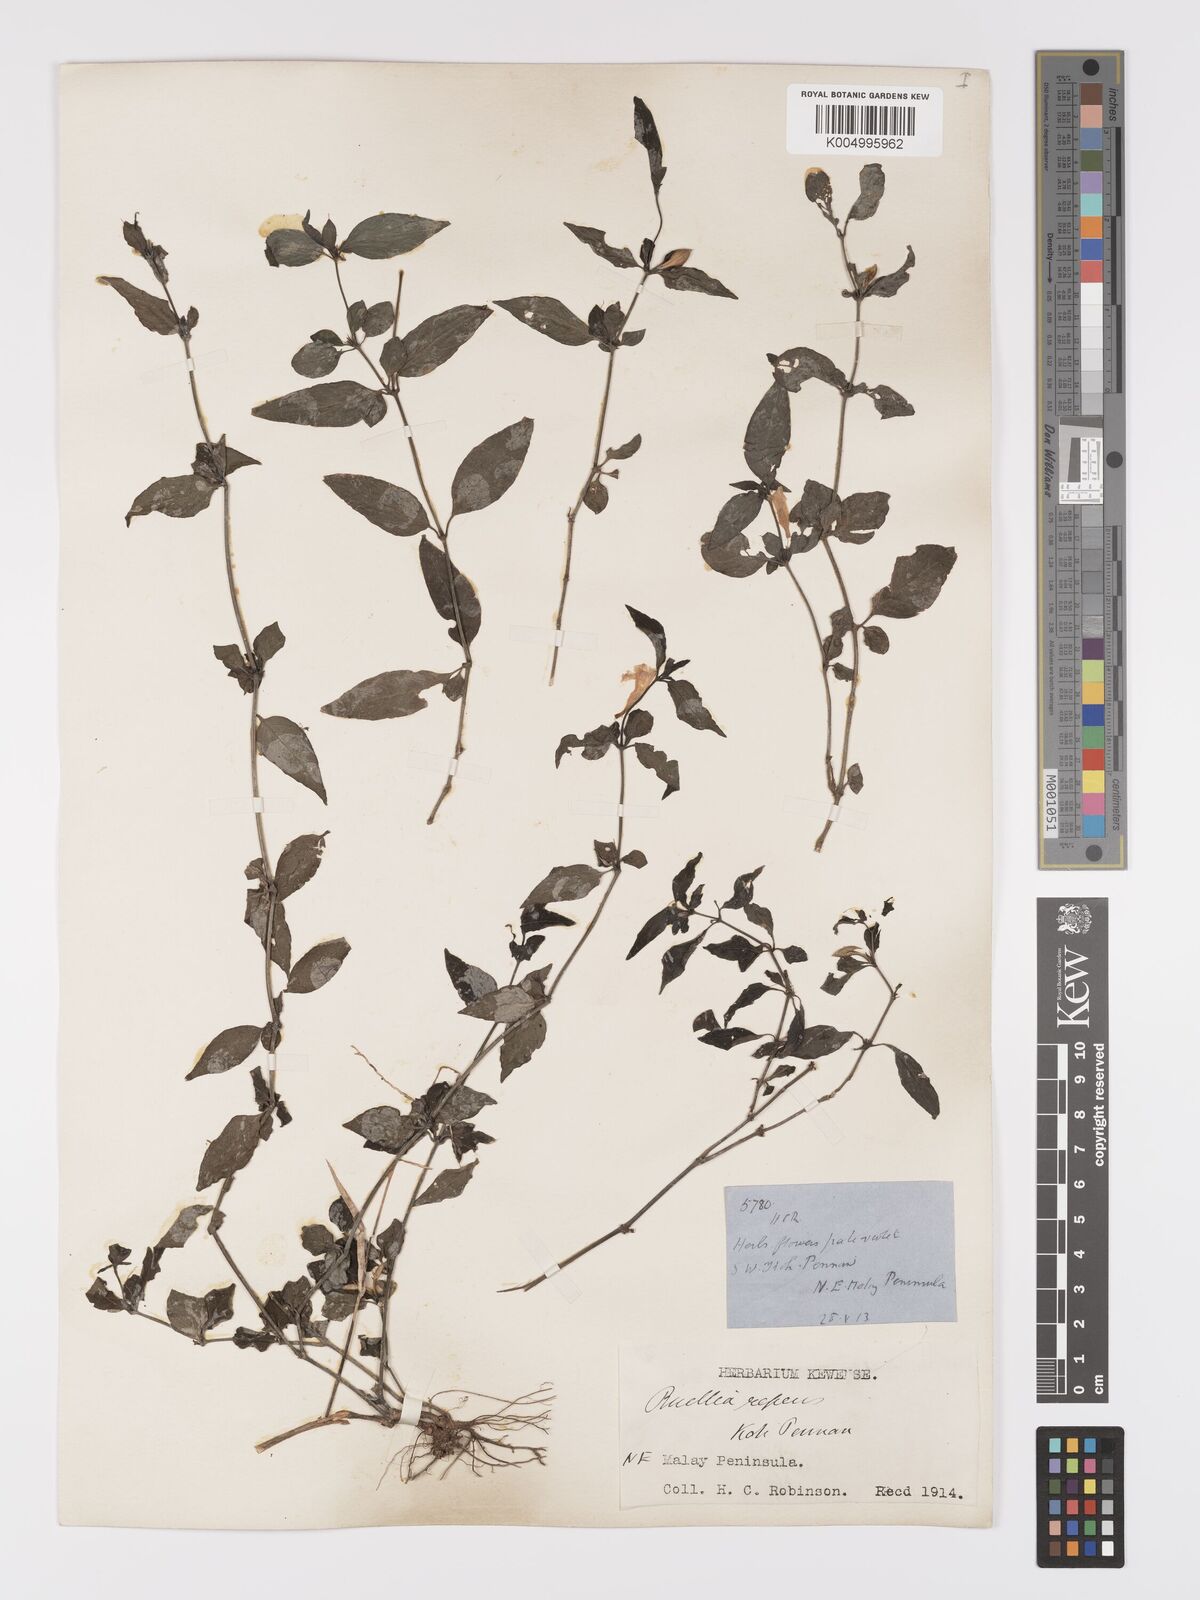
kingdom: Plantae
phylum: Tracheophyta
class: Magnoliopsida
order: Lamiales
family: Acanthaceae
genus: Ruellia
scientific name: Ruellia
